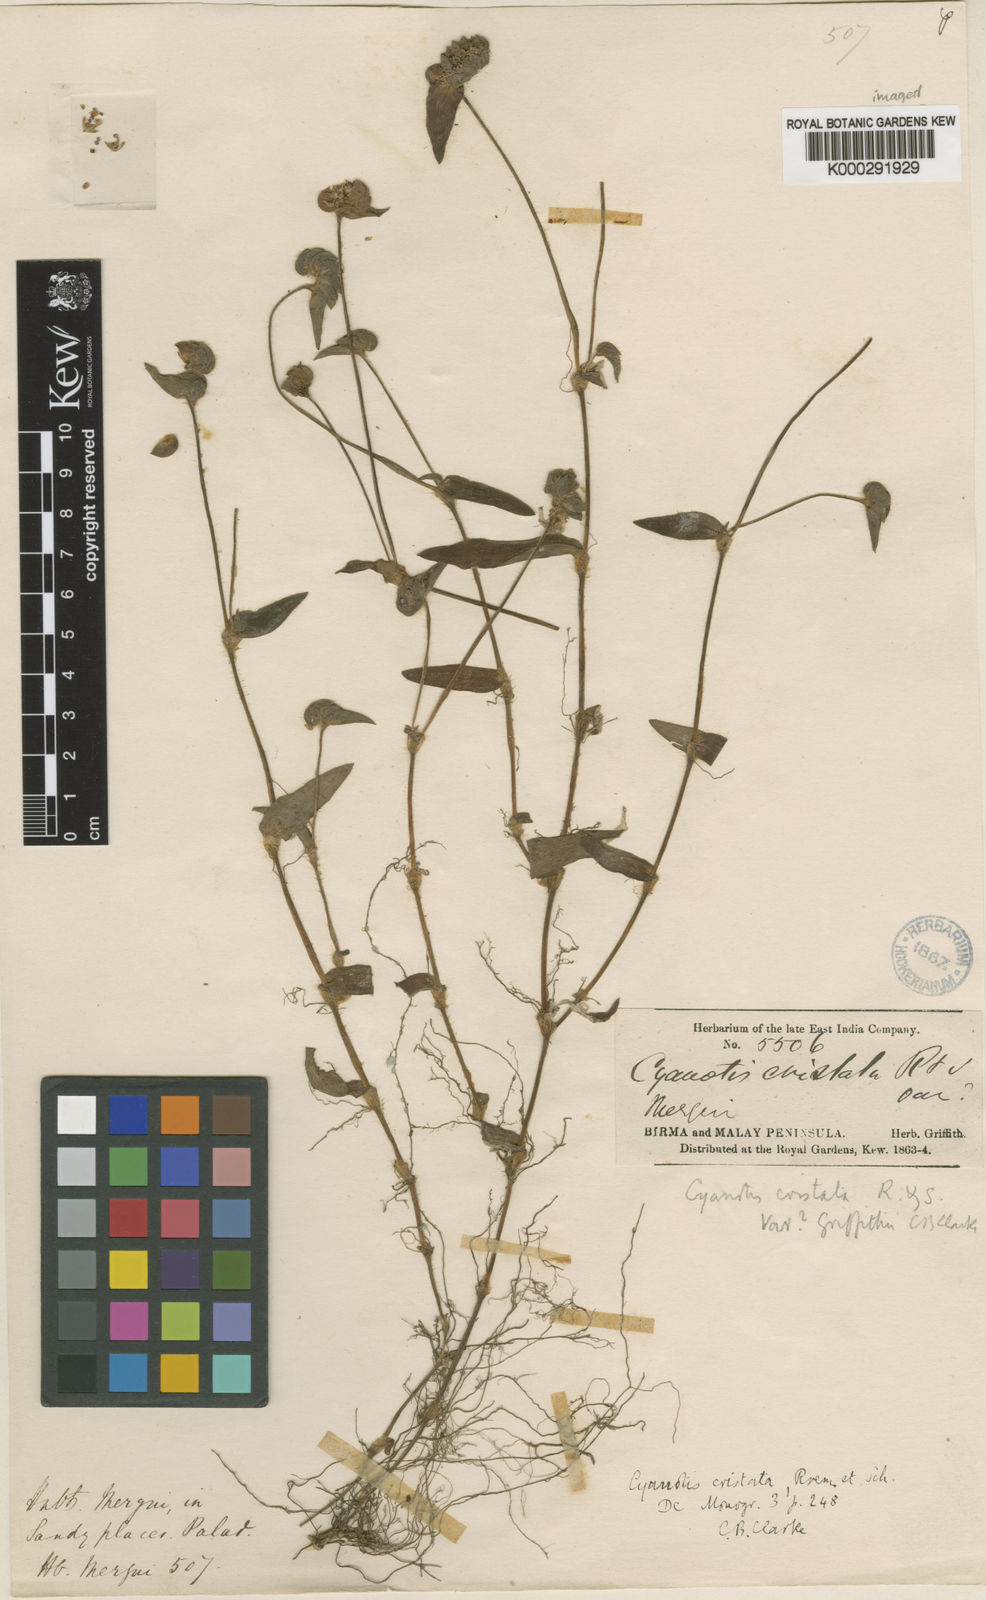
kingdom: Plantae
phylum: Tracheophyta
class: Liliopsida
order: Commelinales
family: Commelinaceae
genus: Cyanotis
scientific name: Cyanotis cristata
